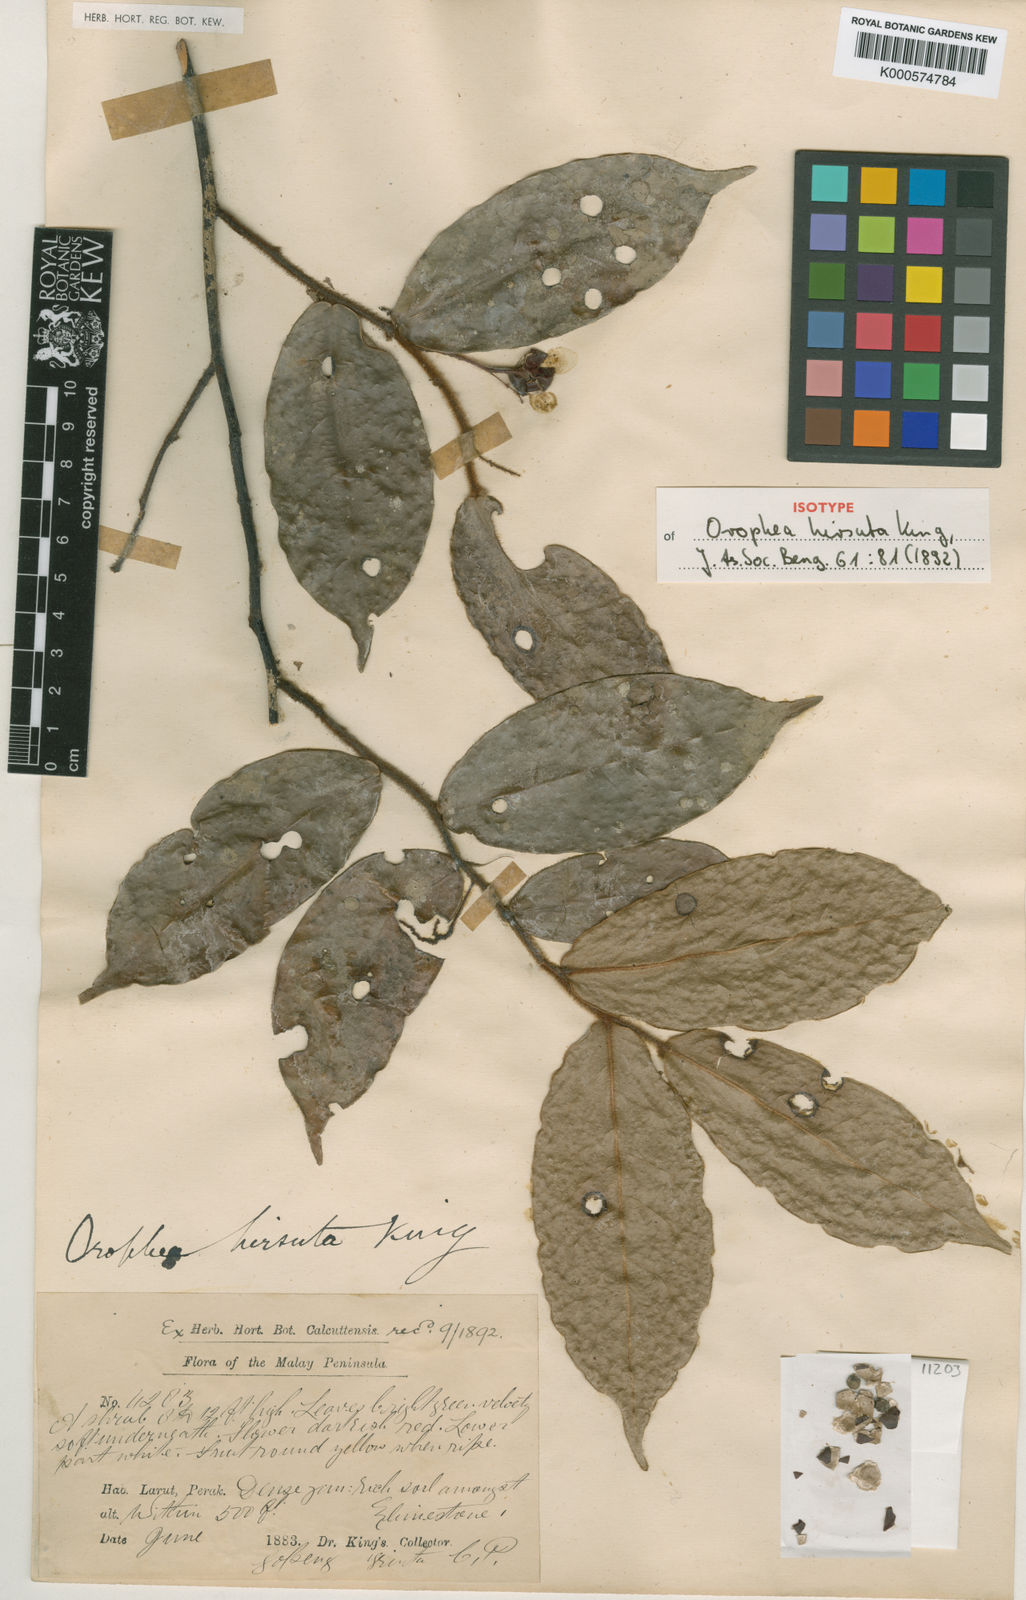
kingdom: Plantae
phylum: Tracheophyta
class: Magnoliopsida
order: Magnoliales
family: Annonaceae
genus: Orophea
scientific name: Orophea hirsuta
